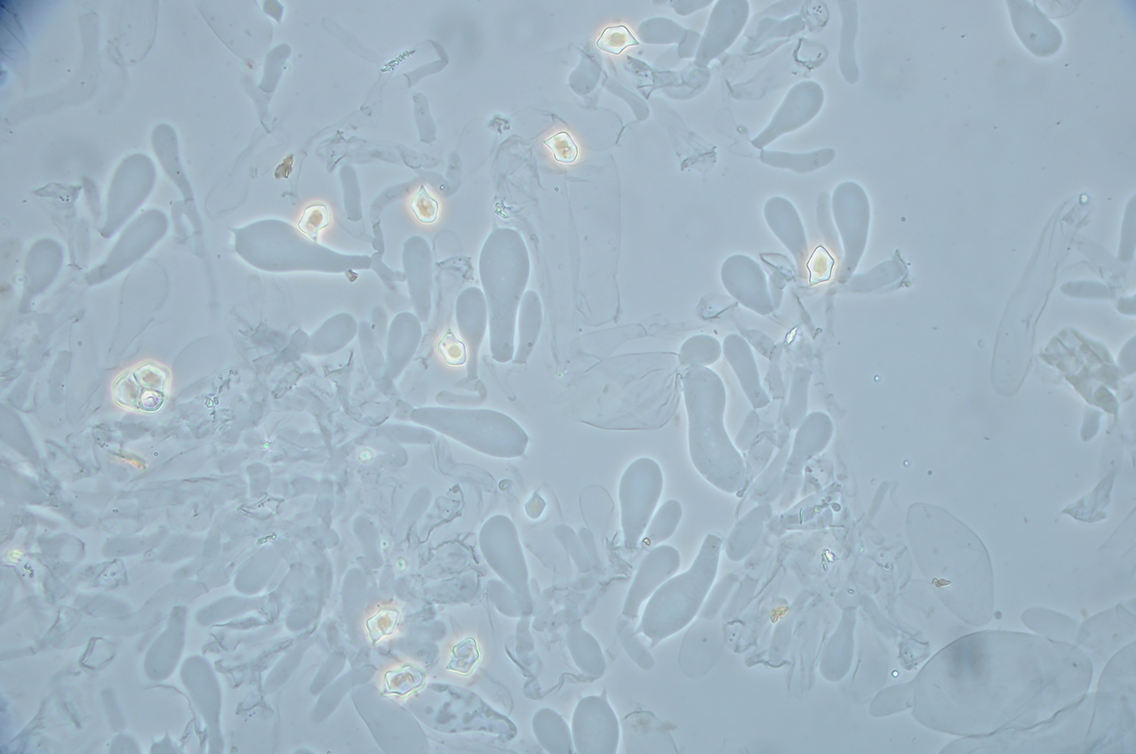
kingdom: Fungi
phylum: Basidiomycota
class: Agaricomycetes
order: Agaricales
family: Entolomataceae
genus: Entoloma
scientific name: Entoloma
